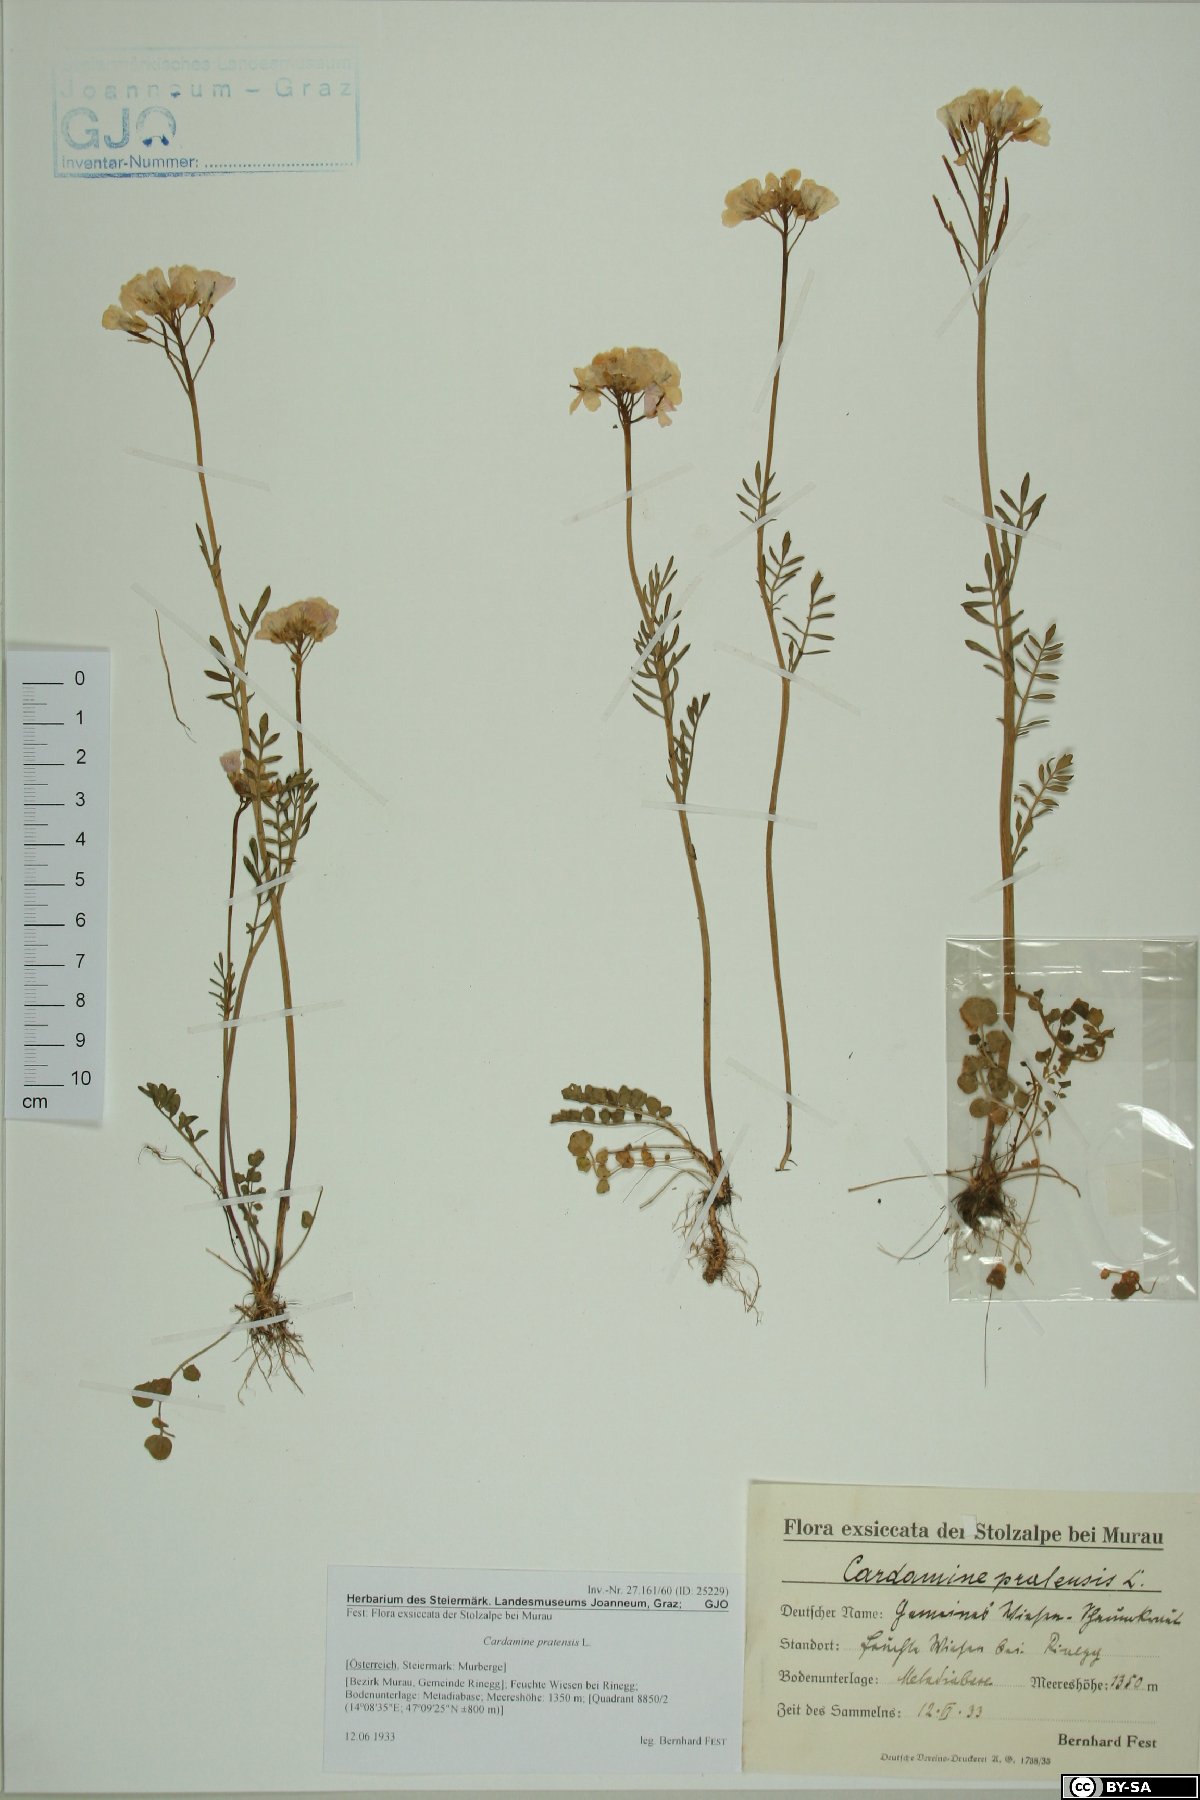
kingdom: Plantae
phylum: Tracheophyta
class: Magnoliopsida
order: Brassicales
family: Brassicaceae
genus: Cardamine
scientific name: Cardamine pratensis
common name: Cuckoo flower
